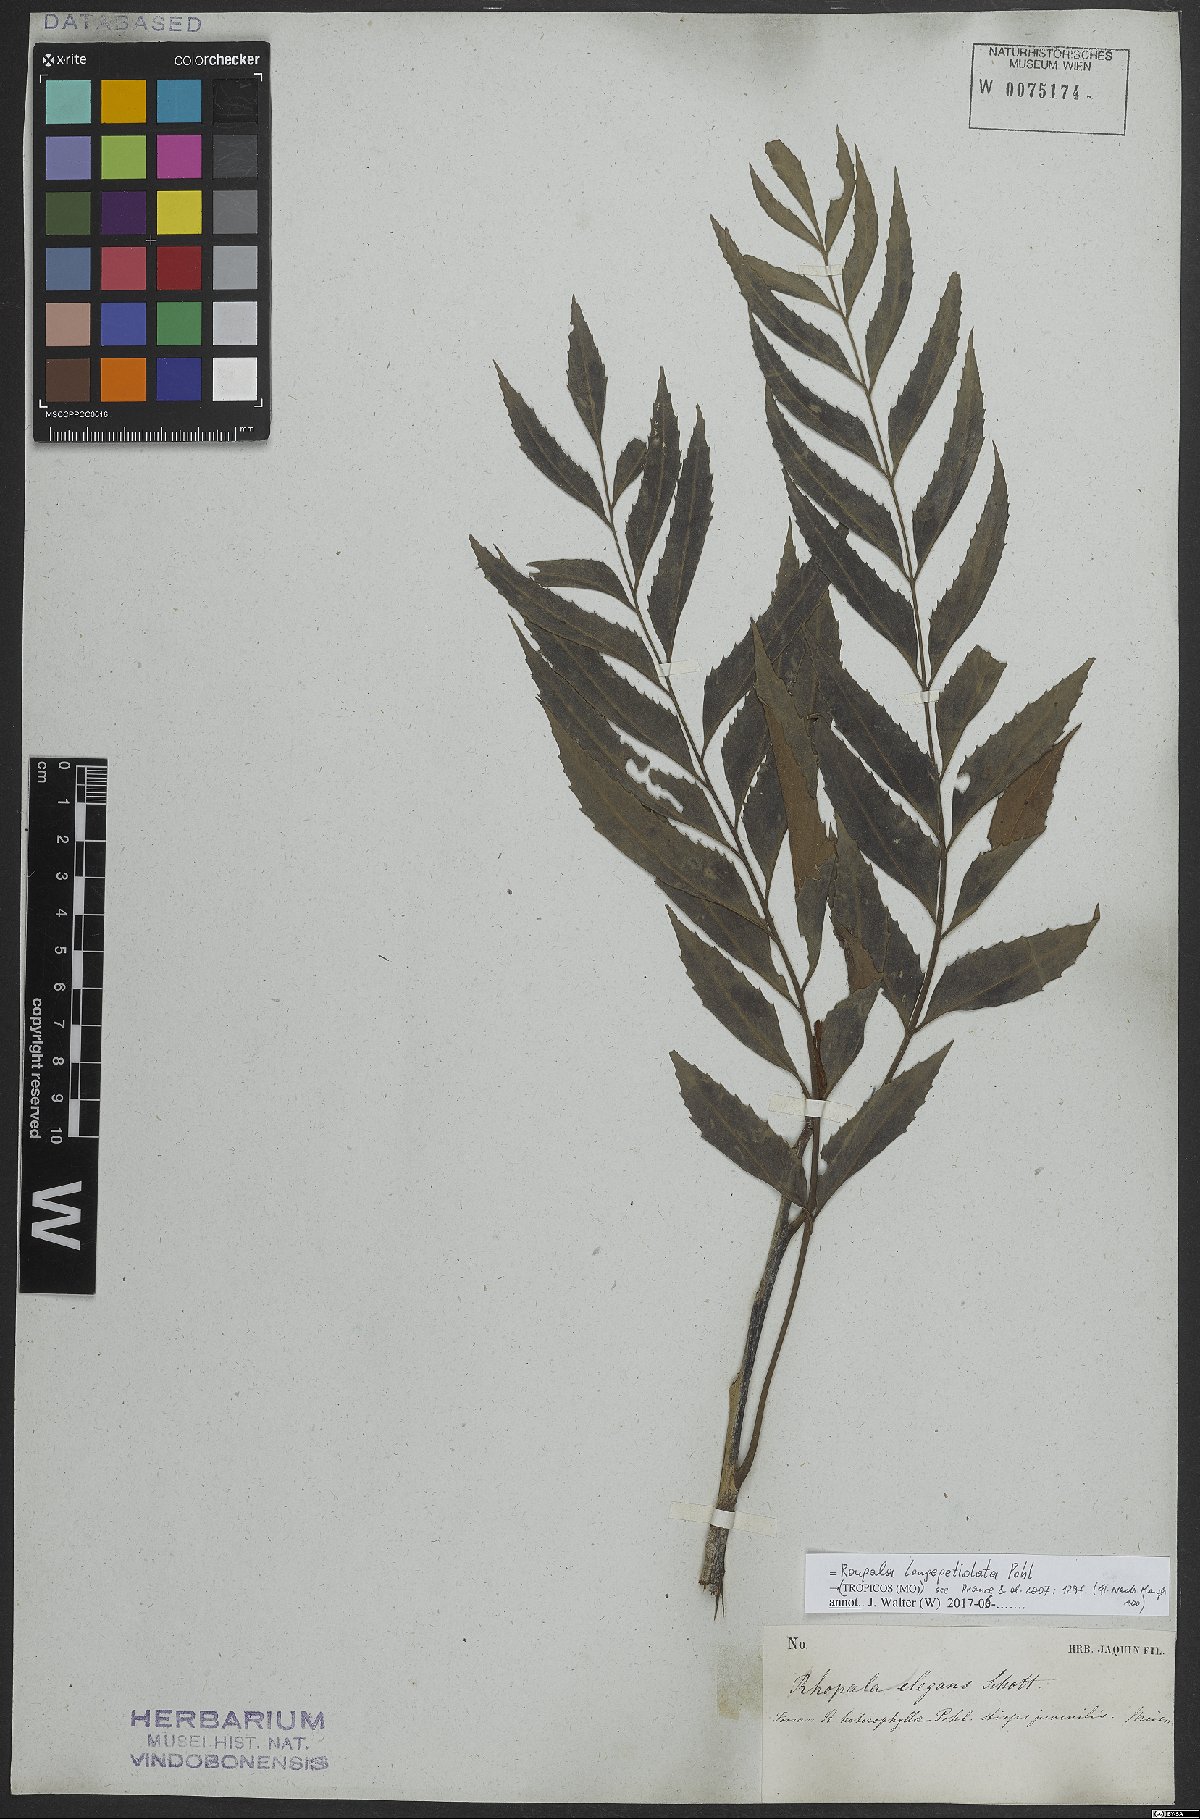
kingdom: Plantae
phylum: Tracheophyta
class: Magnoliopsida
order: Proteales
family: Proteaceae
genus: Roupala
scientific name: Roupala longepetiolata
